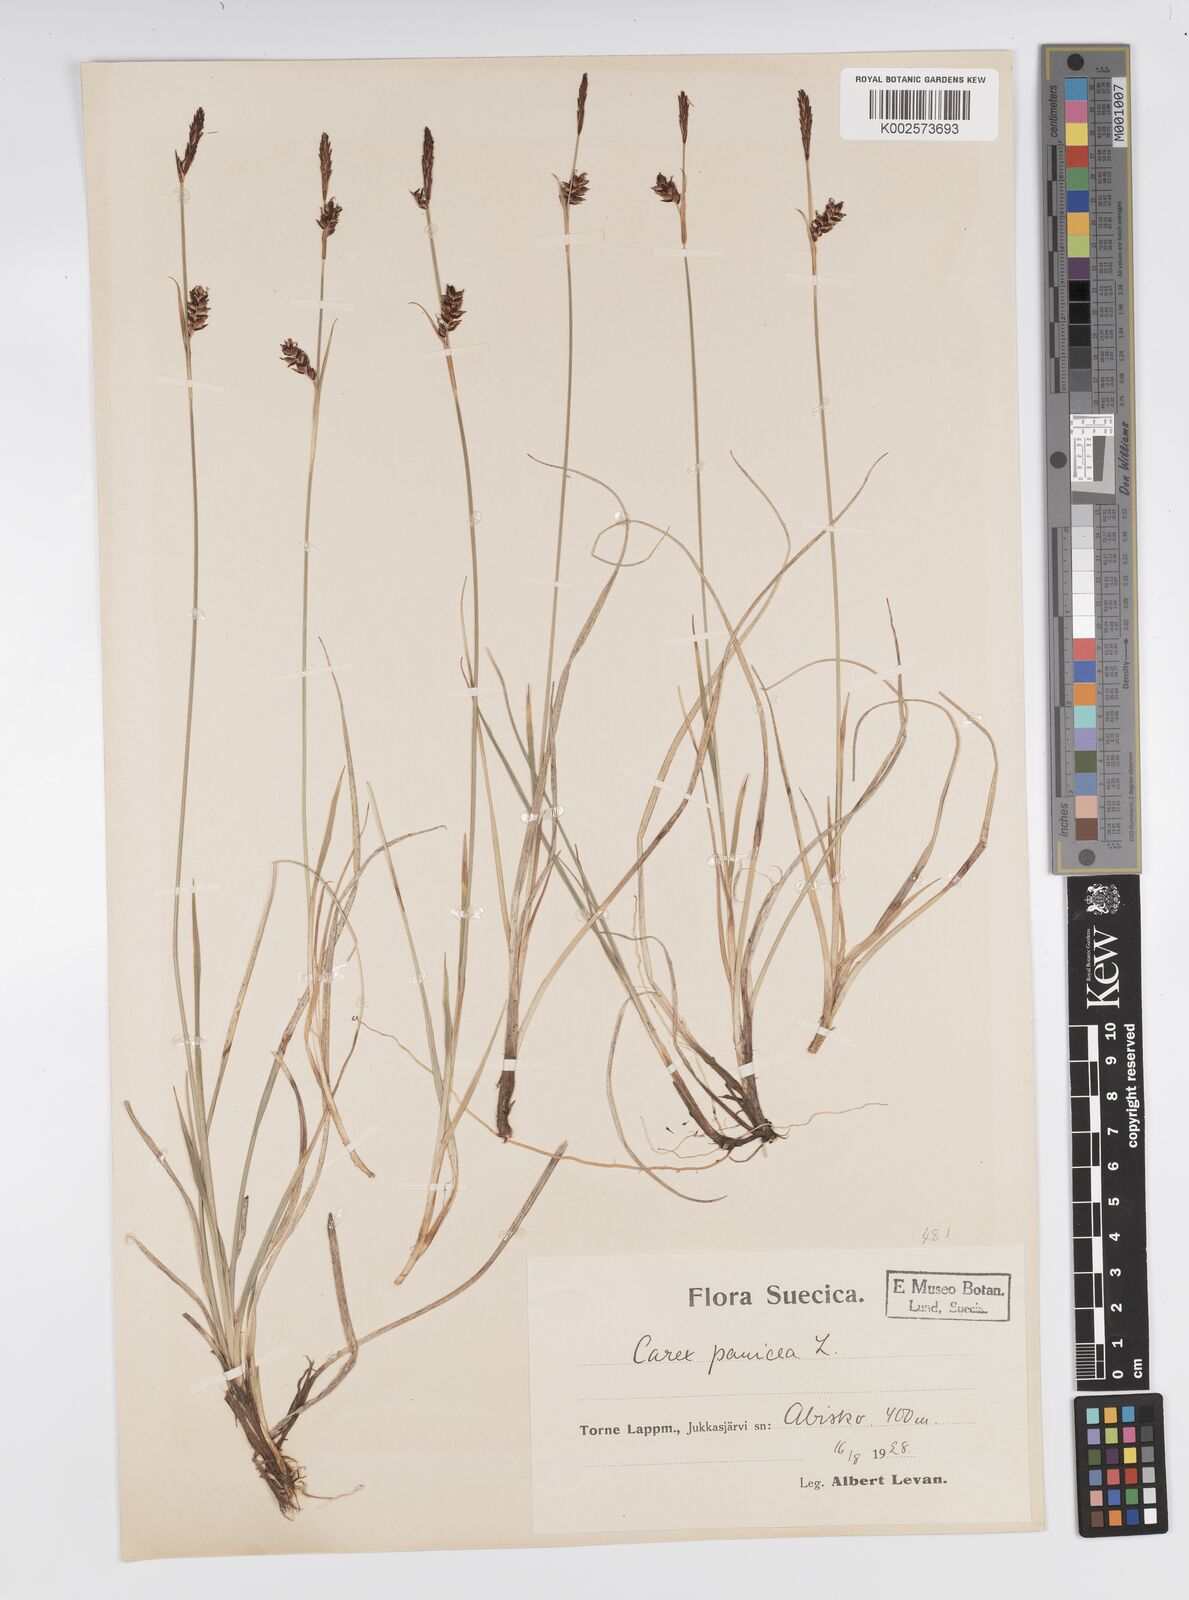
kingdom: Plantae
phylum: Tracheophyta
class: Liliopsida
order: Poales
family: Cyperaceae
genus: Carex
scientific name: Carex panicea
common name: Carnation sedge
